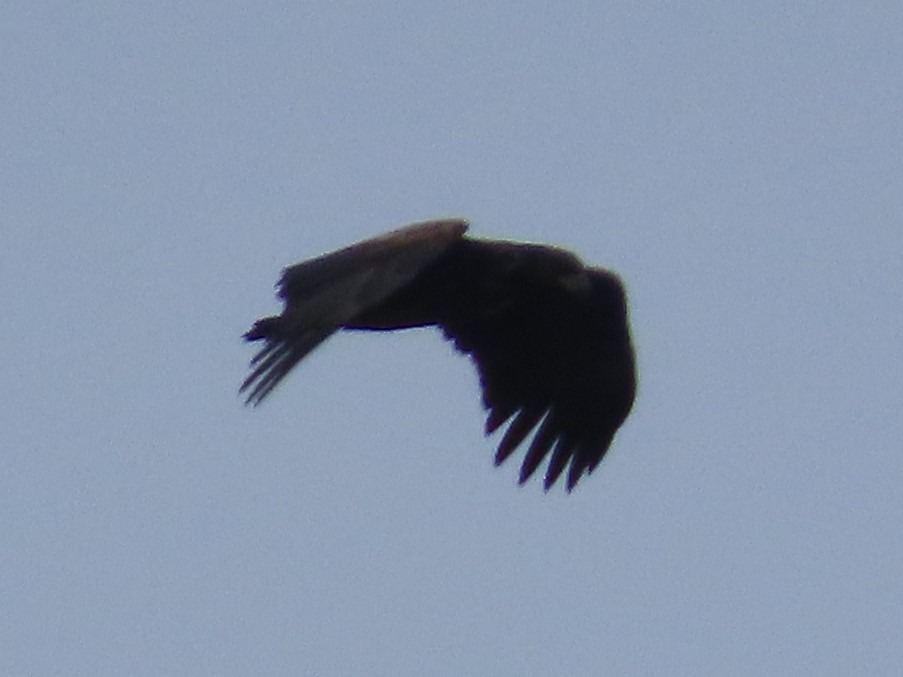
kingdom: Animalia
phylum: Chordata
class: Aves
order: Accipitriformes
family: Accipitridae
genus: Haliaeetus
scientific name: Haliaeetus albicilla
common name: Havørn
